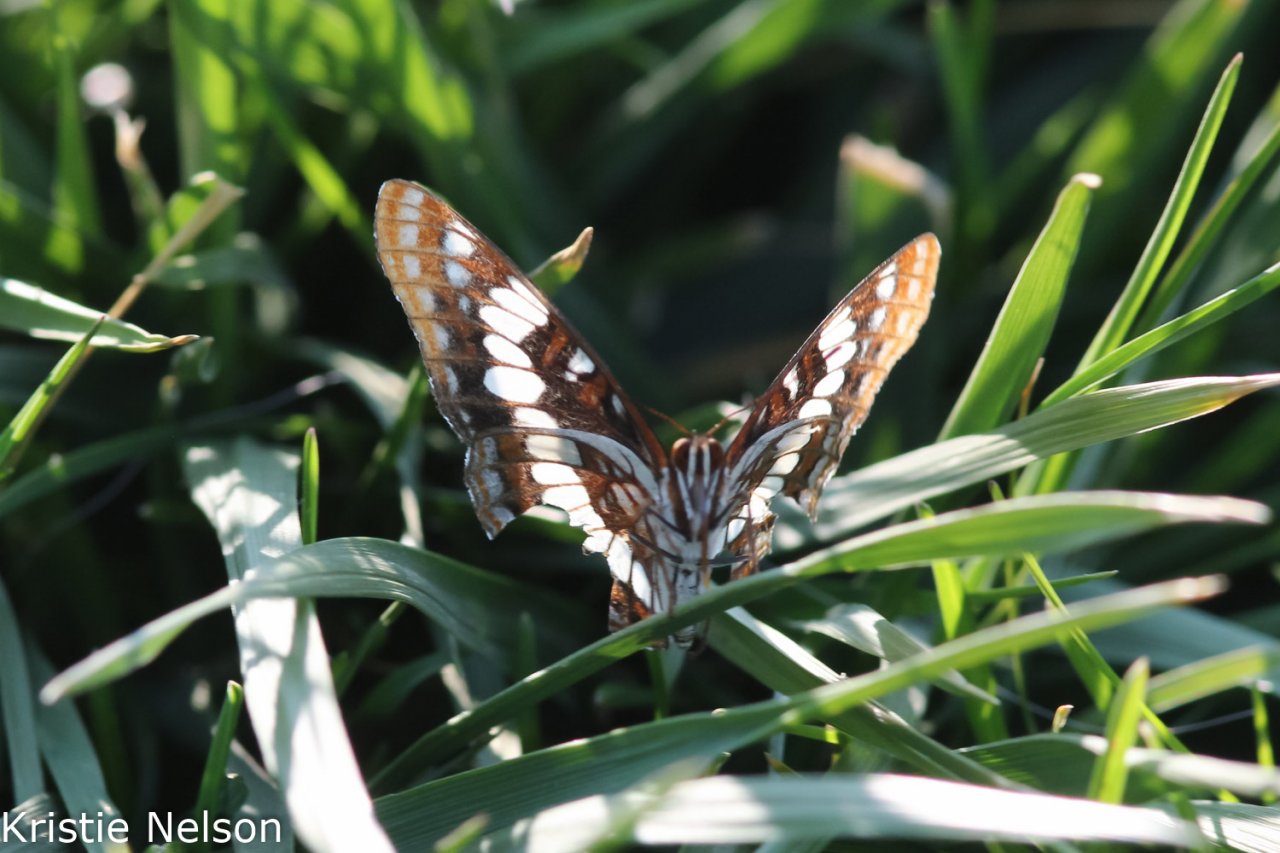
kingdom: Animalia
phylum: Arthropoda
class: Insecta
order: Lepidoptera
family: Nymphalidae
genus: Limenitis
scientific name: Limenitis lorquini
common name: Lorquin's Admiral
